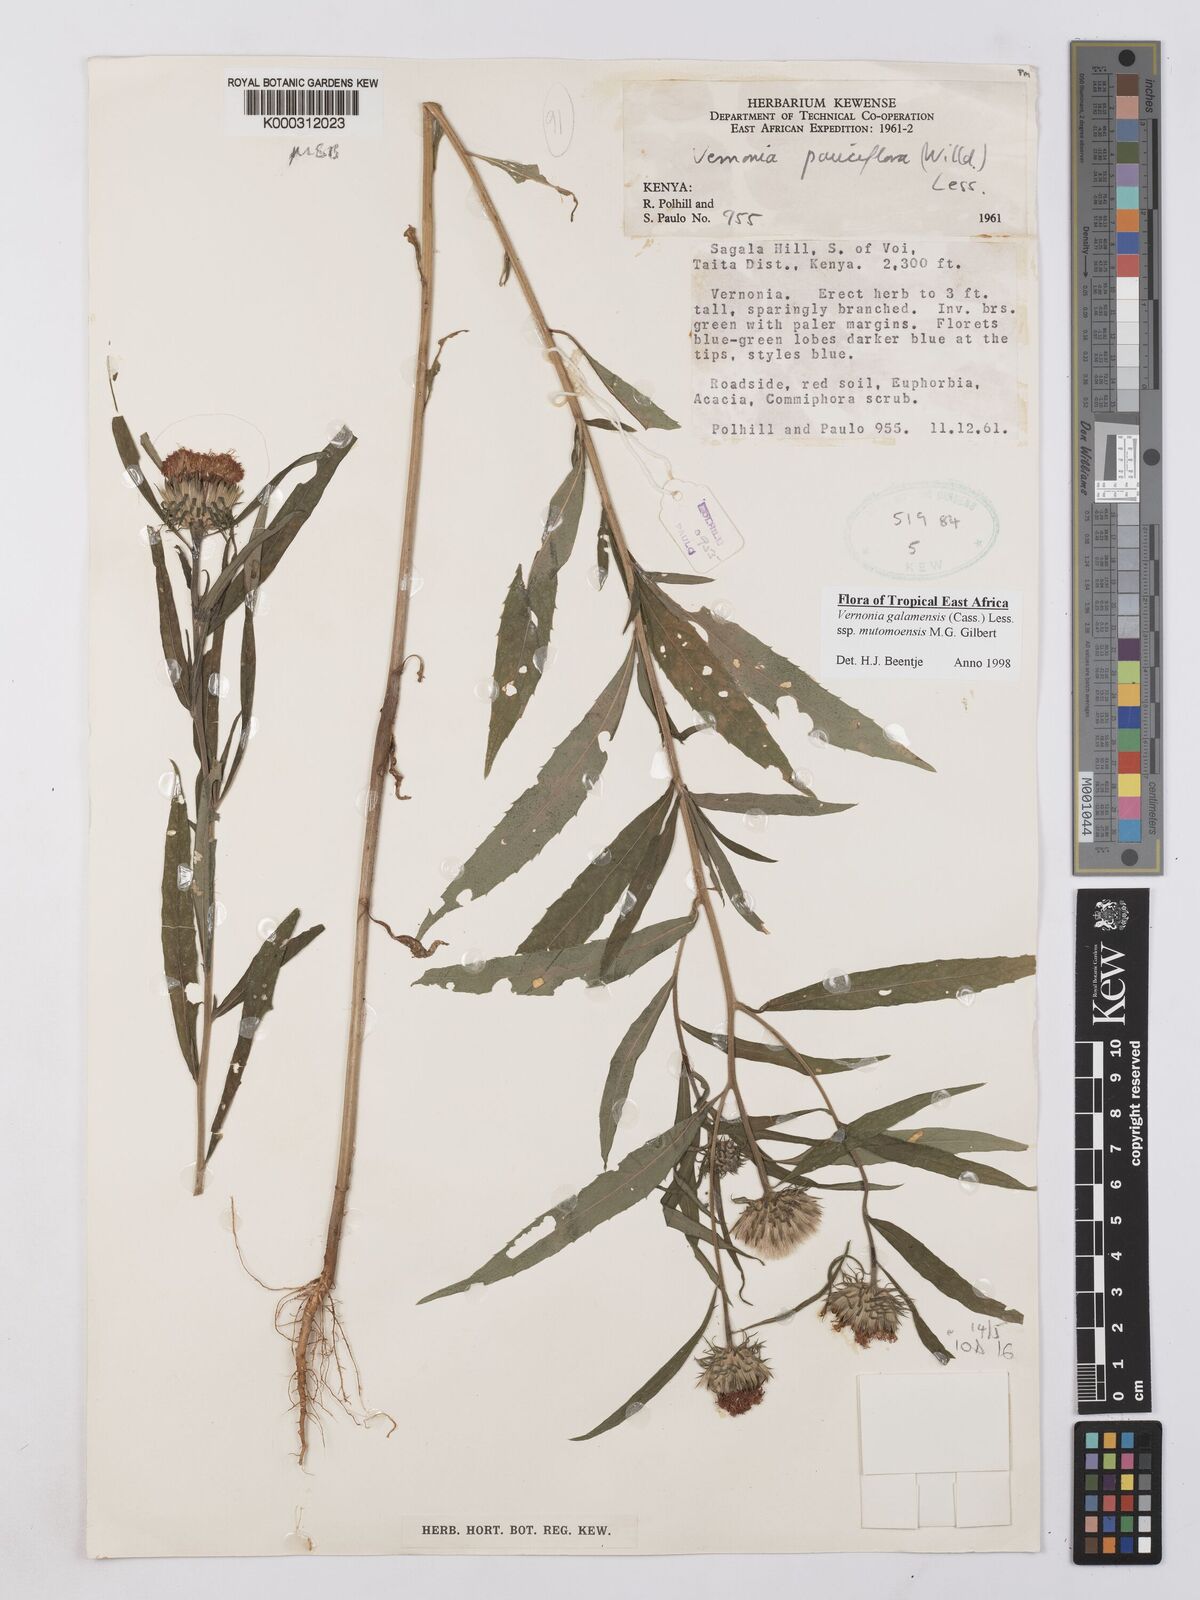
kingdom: Plantae
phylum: Tracheophyta
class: Magnoliopsida
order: Asterales
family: Asteraceae
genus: Vernonia
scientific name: Vernonia galamensis
